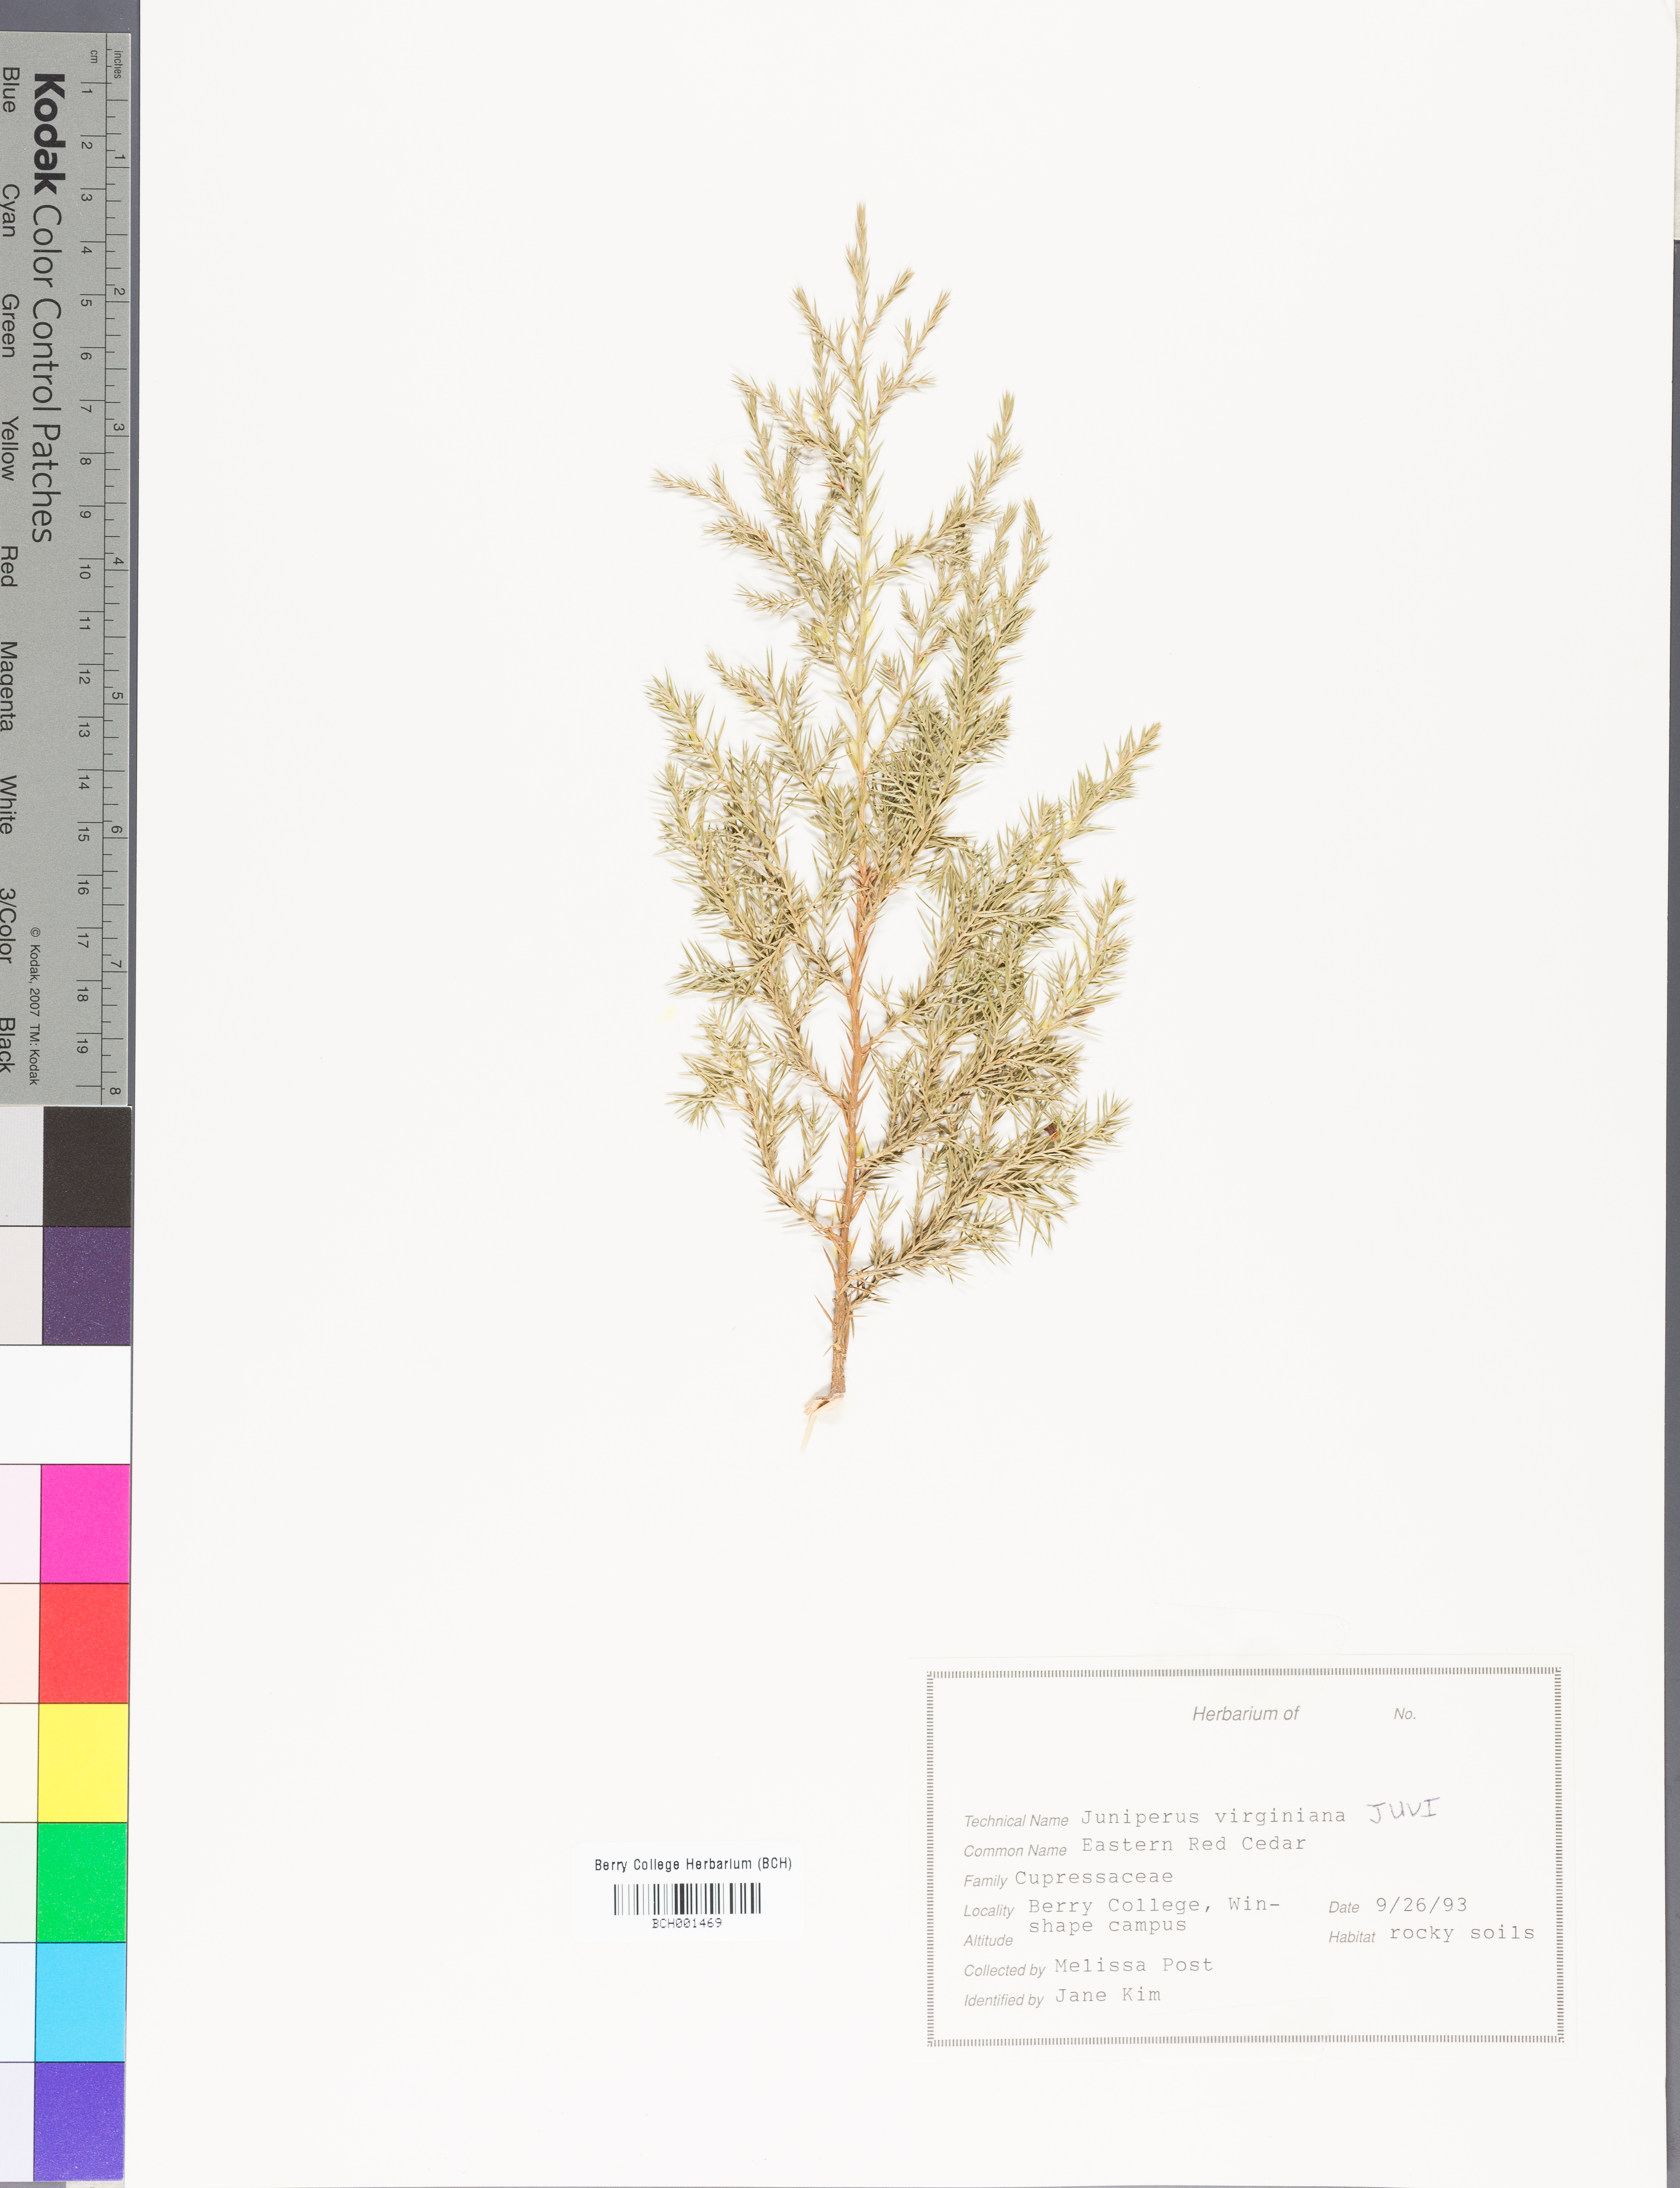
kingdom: Plantae
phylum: Tracheophyta
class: Pinopsida
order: Pinales
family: Cupressaceae
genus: Juniperus
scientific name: Juniperus virginiana
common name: Red juniper
